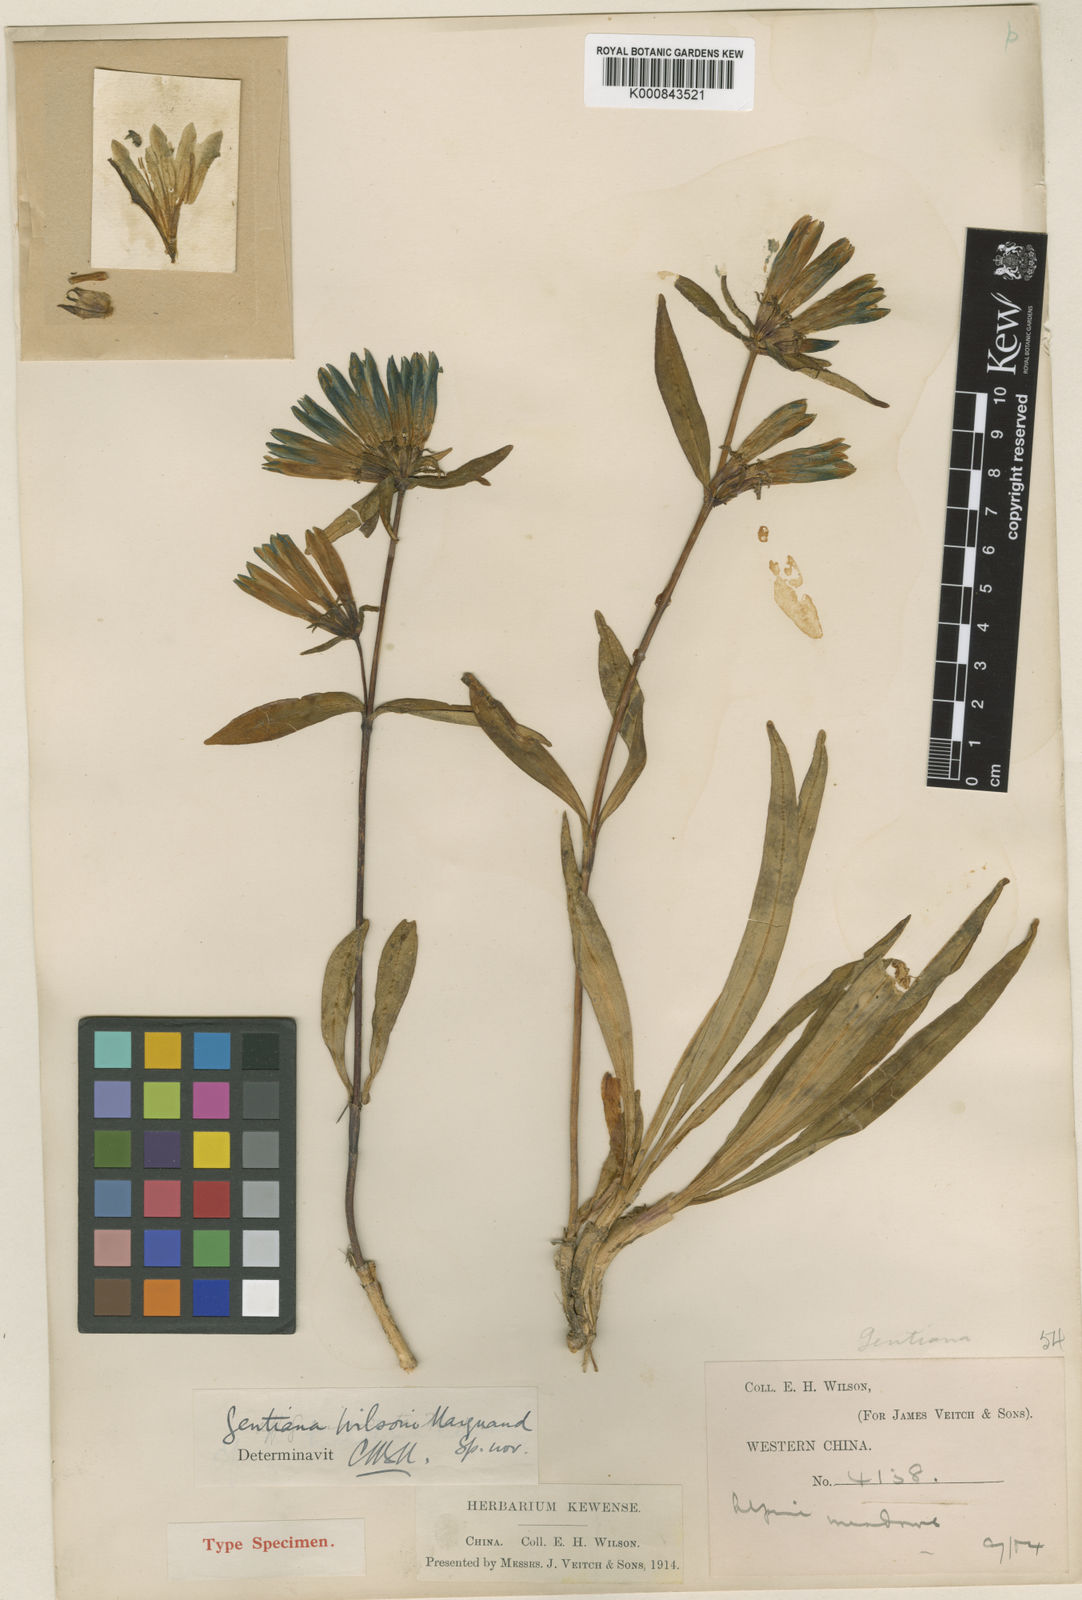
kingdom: Plantae
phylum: Tracheophyta
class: Magnoliopsida
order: Gentianales
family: Gentianaceae
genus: Gentiana
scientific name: Gentiana wilsonii
